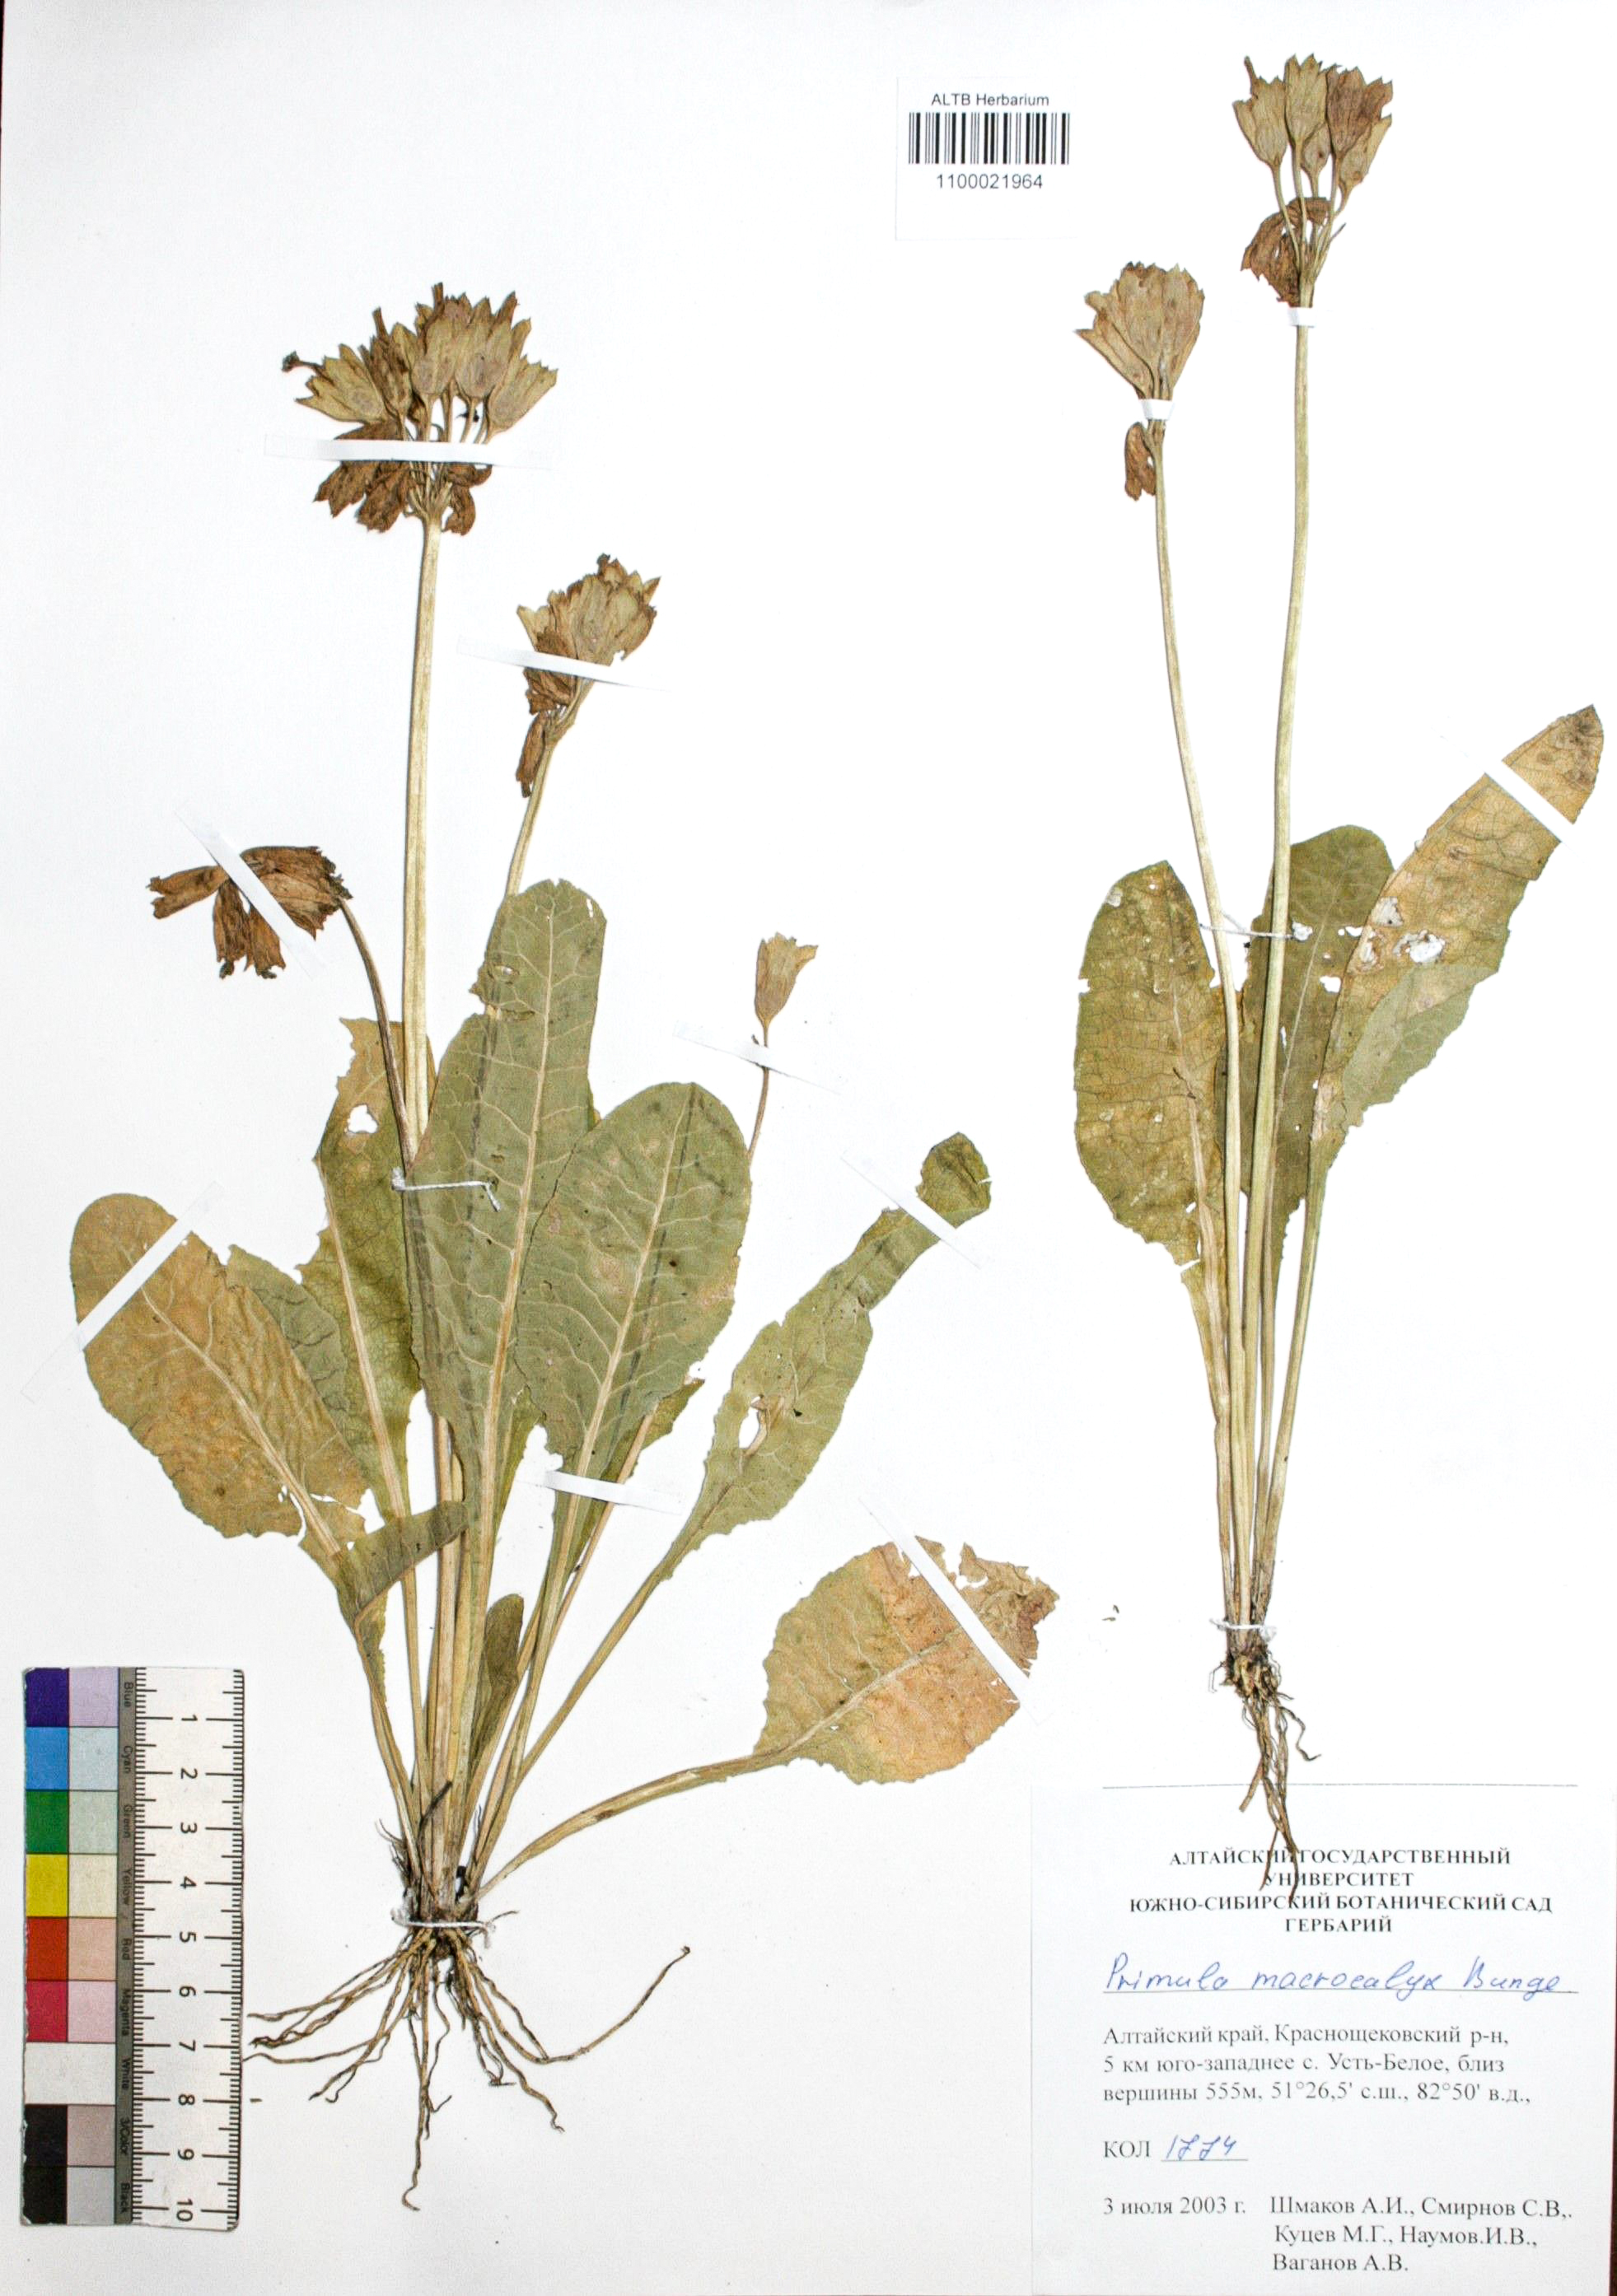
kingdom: Plantae
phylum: Tracheophyta
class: Magnoliopsida
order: Ericales
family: Primulaceae
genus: Primula
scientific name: Primula veris
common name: Cowslip
